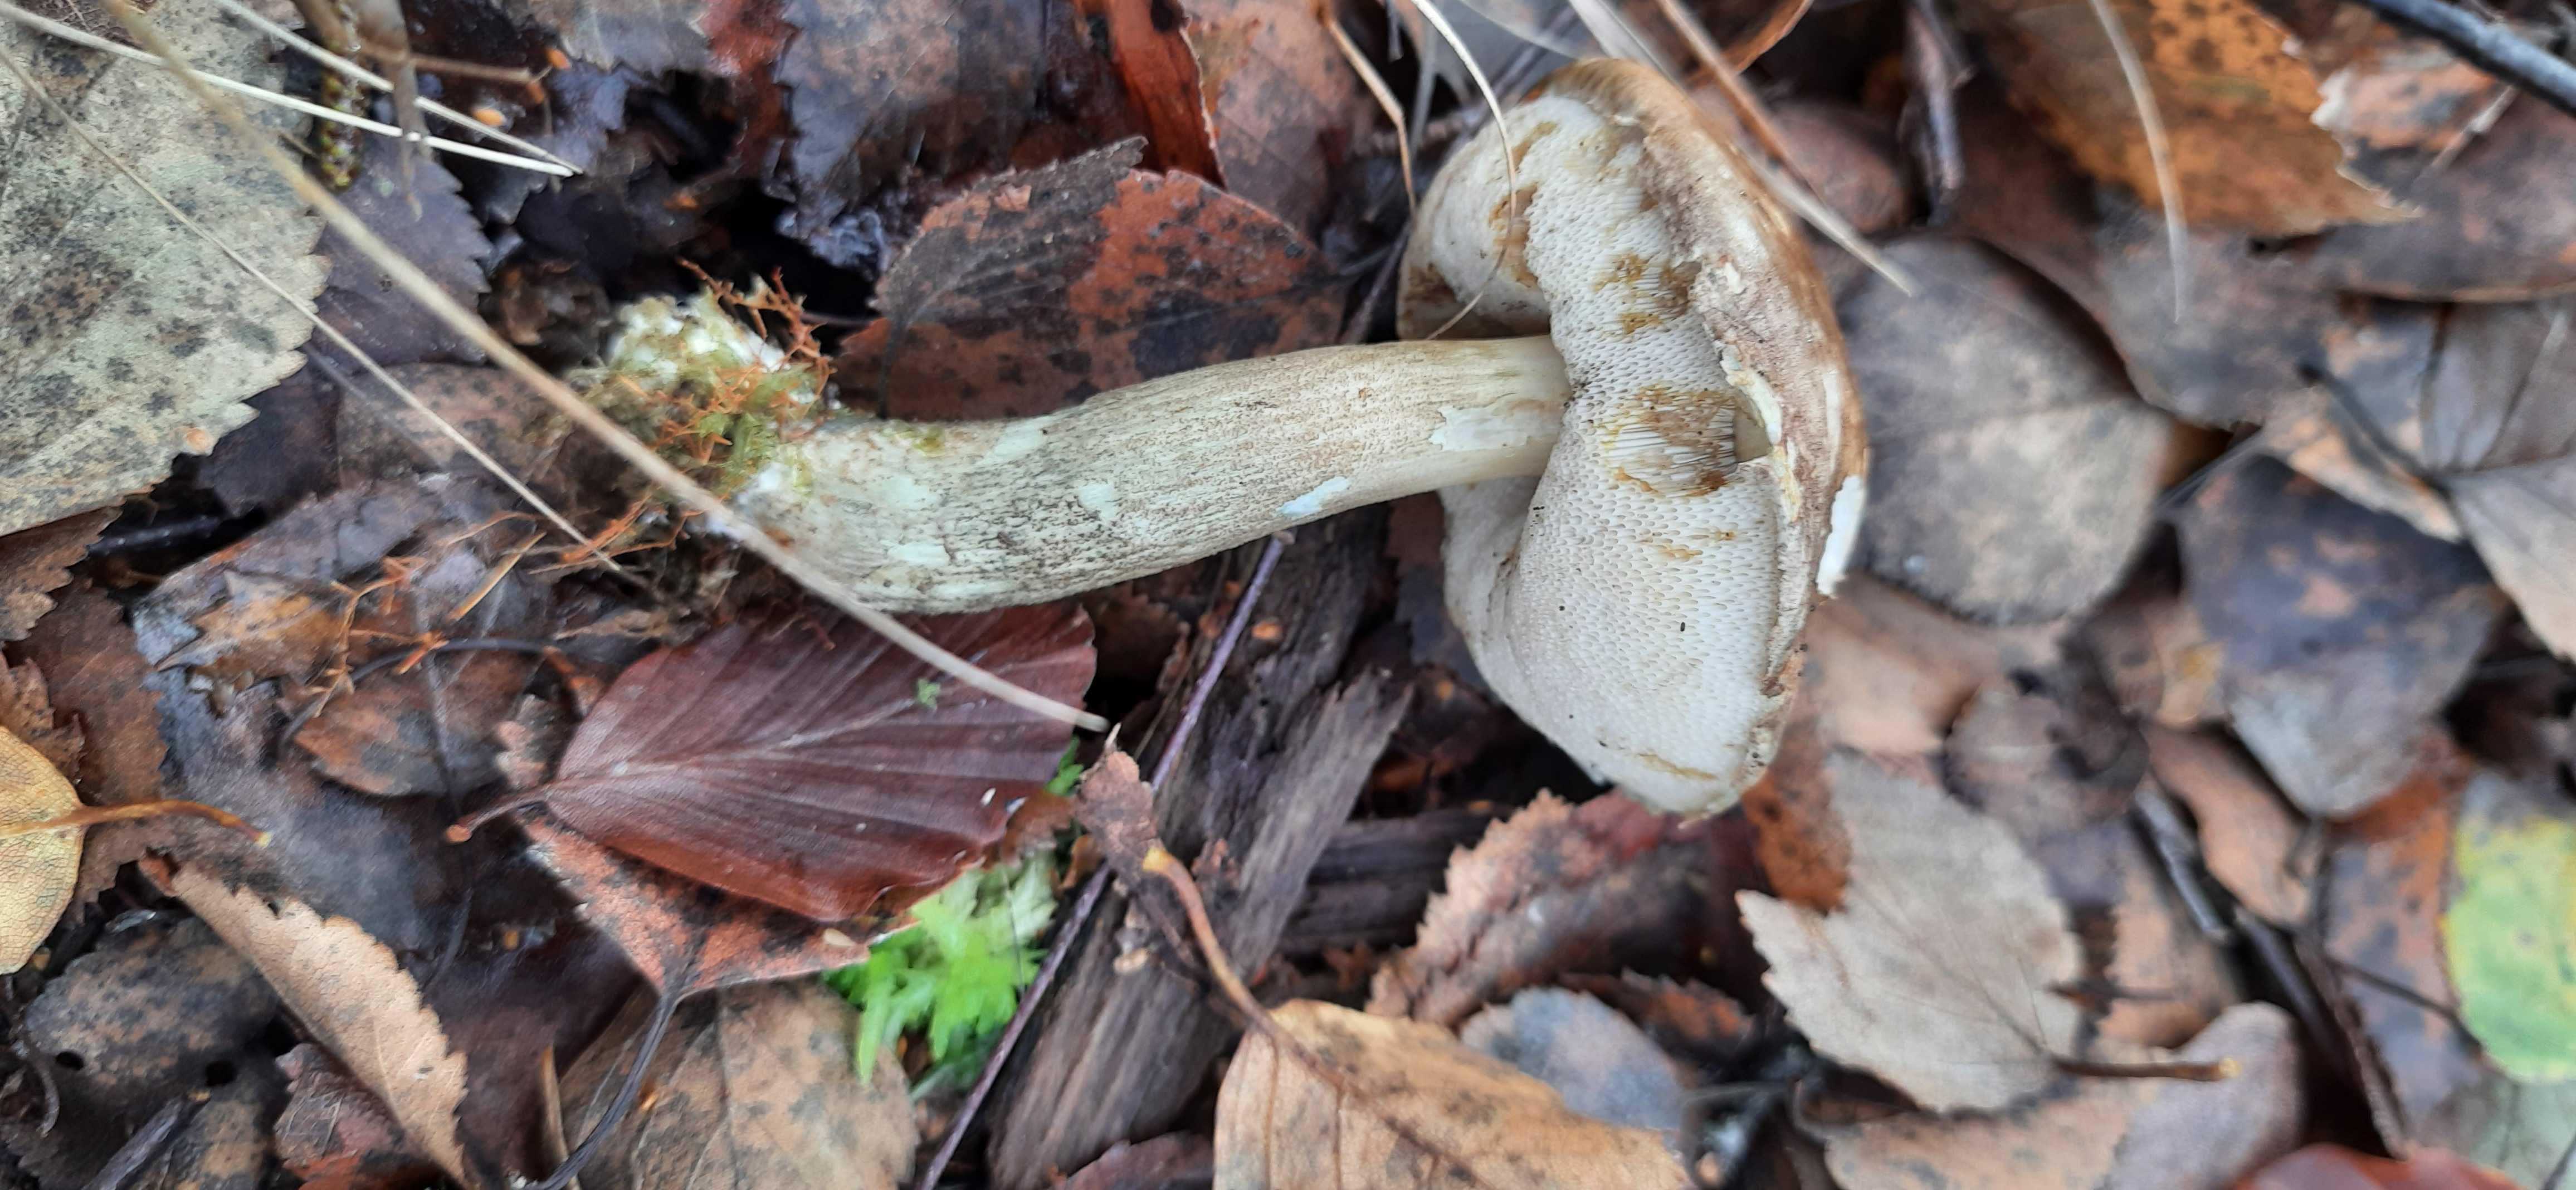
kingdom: Fungi
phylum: Basidiomycota
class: Agaricomycetes
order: Boletales
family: Boletaceae
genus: Leccinum
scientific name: Leccinum variicolor
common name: flammet skælrørhat
